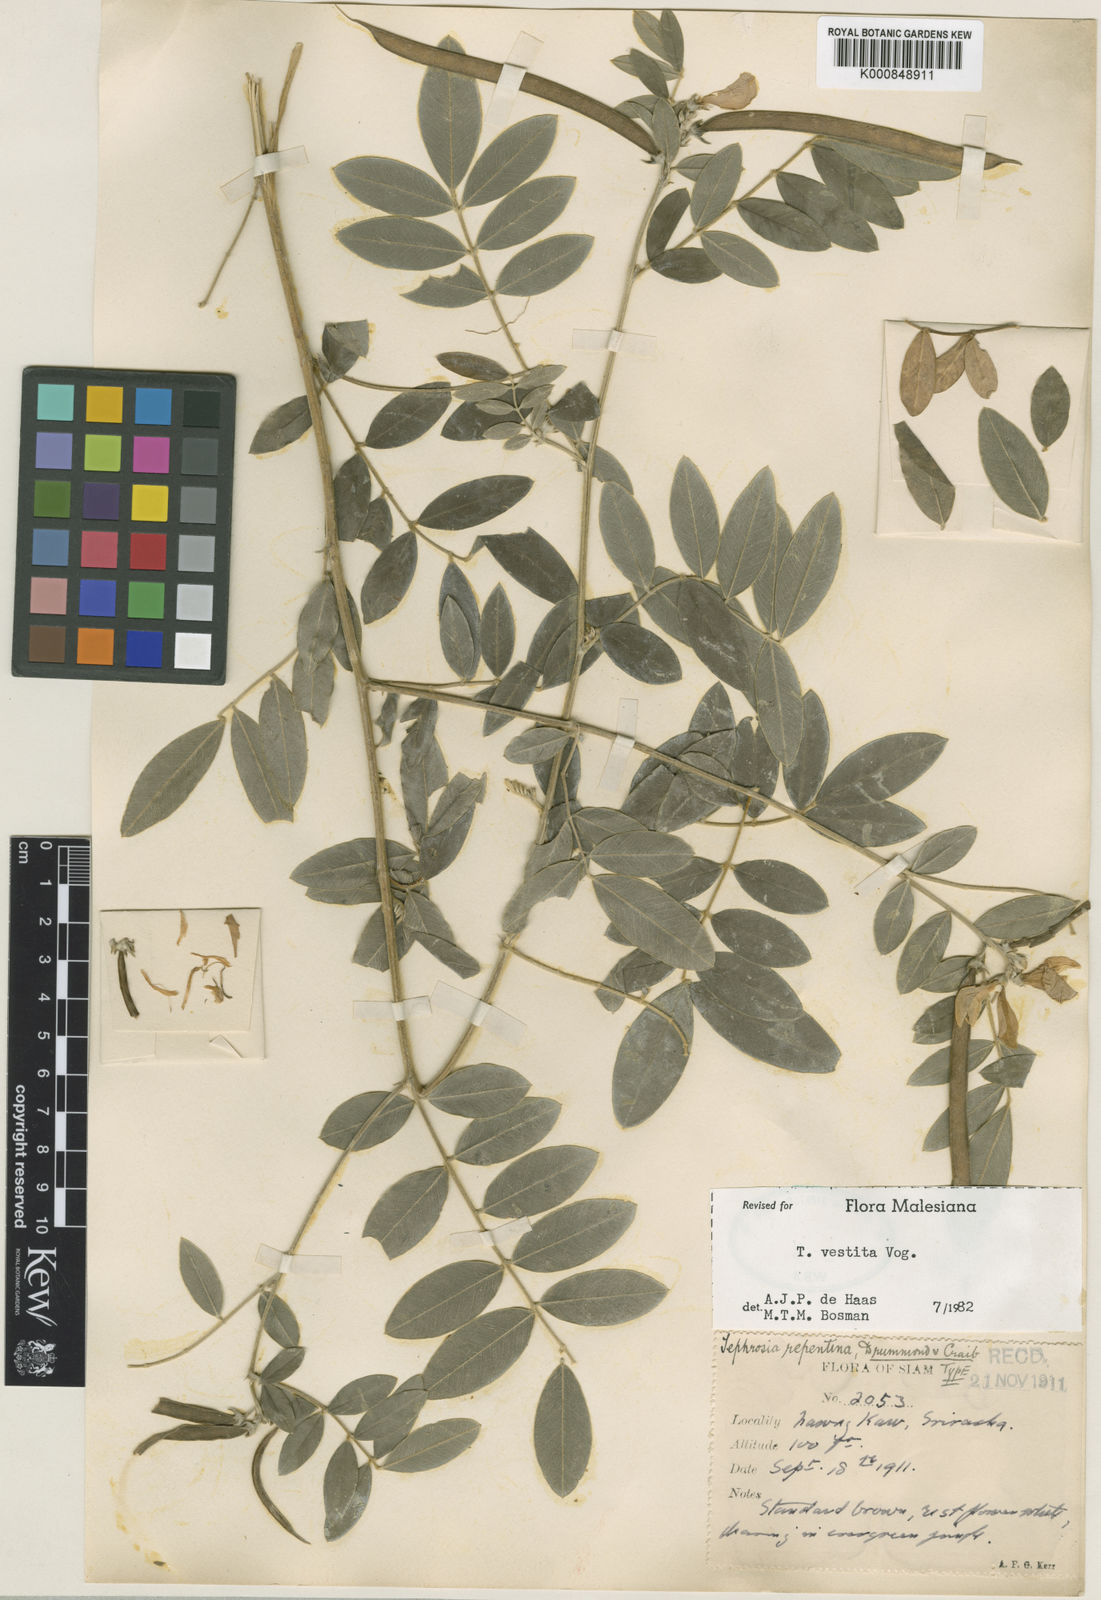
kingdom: Plantae
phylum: Tracheophyta
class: Magnoliopsida
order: Fabales
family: Fabaceae
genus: Tephrosia
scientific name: Tephrosia vestita
